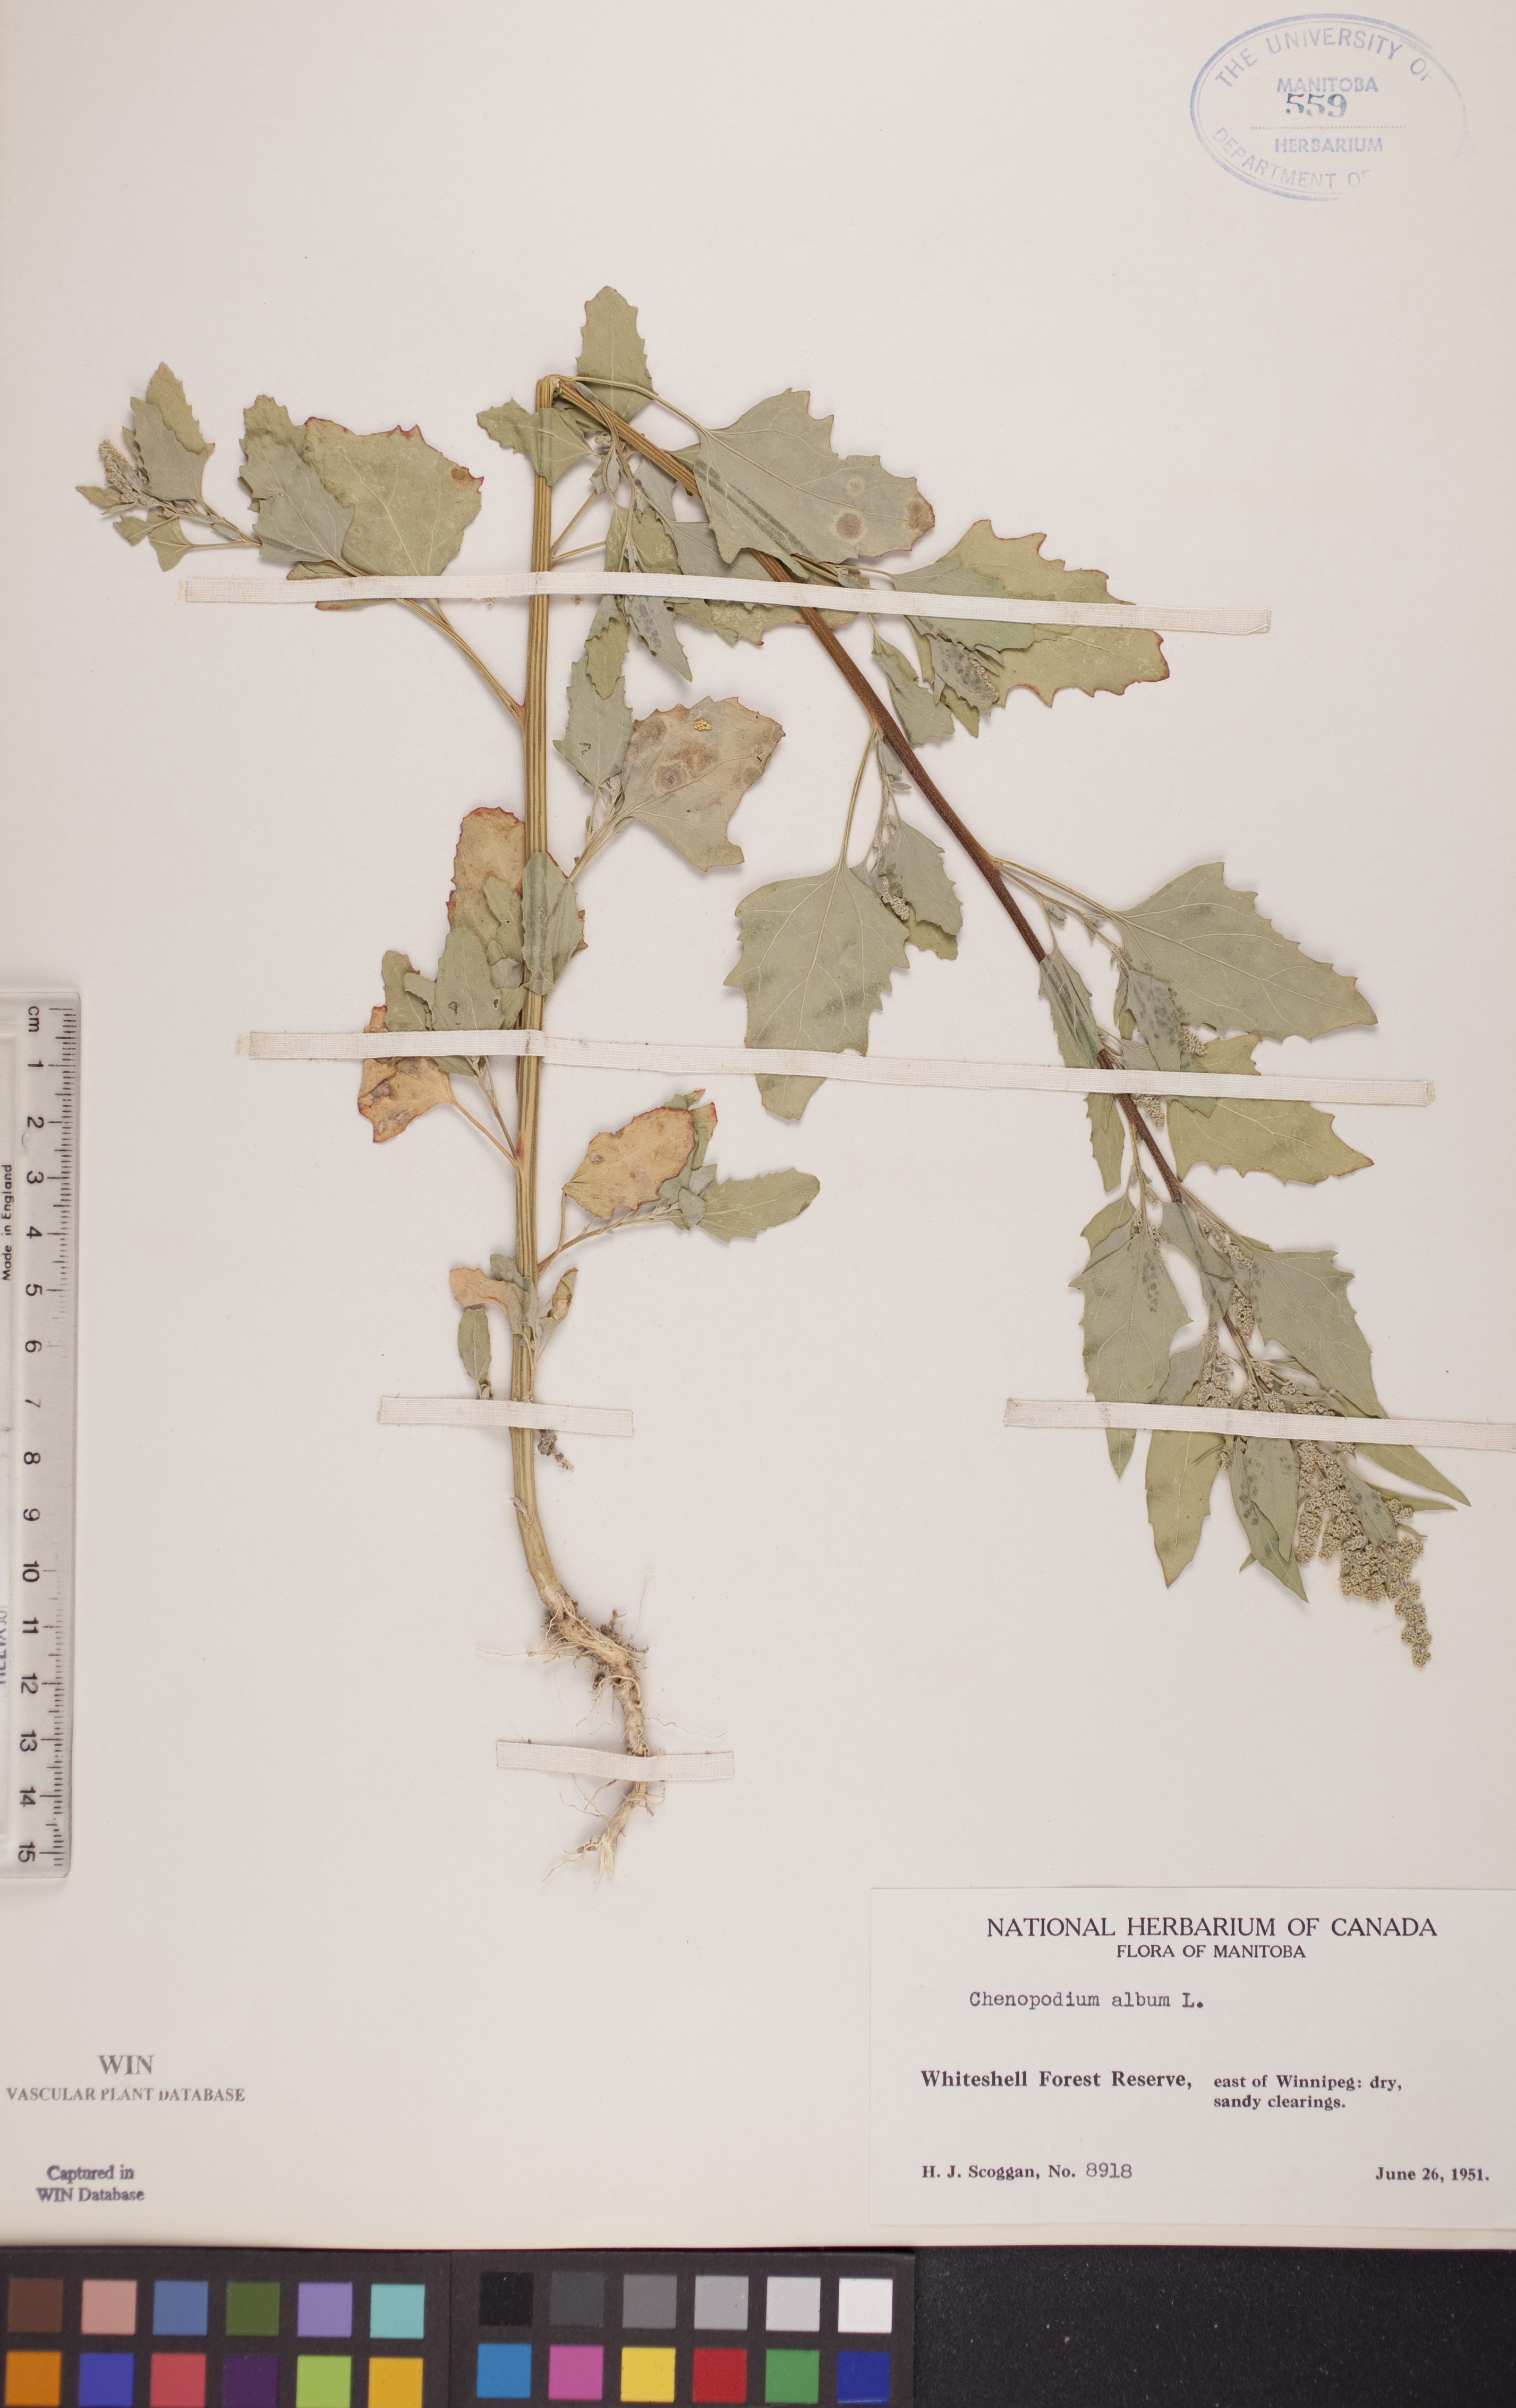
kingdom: Plantae
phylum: Tracheophyta
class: Magnoliopsida
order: Caryophyllales
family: Amaranthaceae
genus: Chenopodium
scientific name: Chenopodium album
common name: Fat-hen
